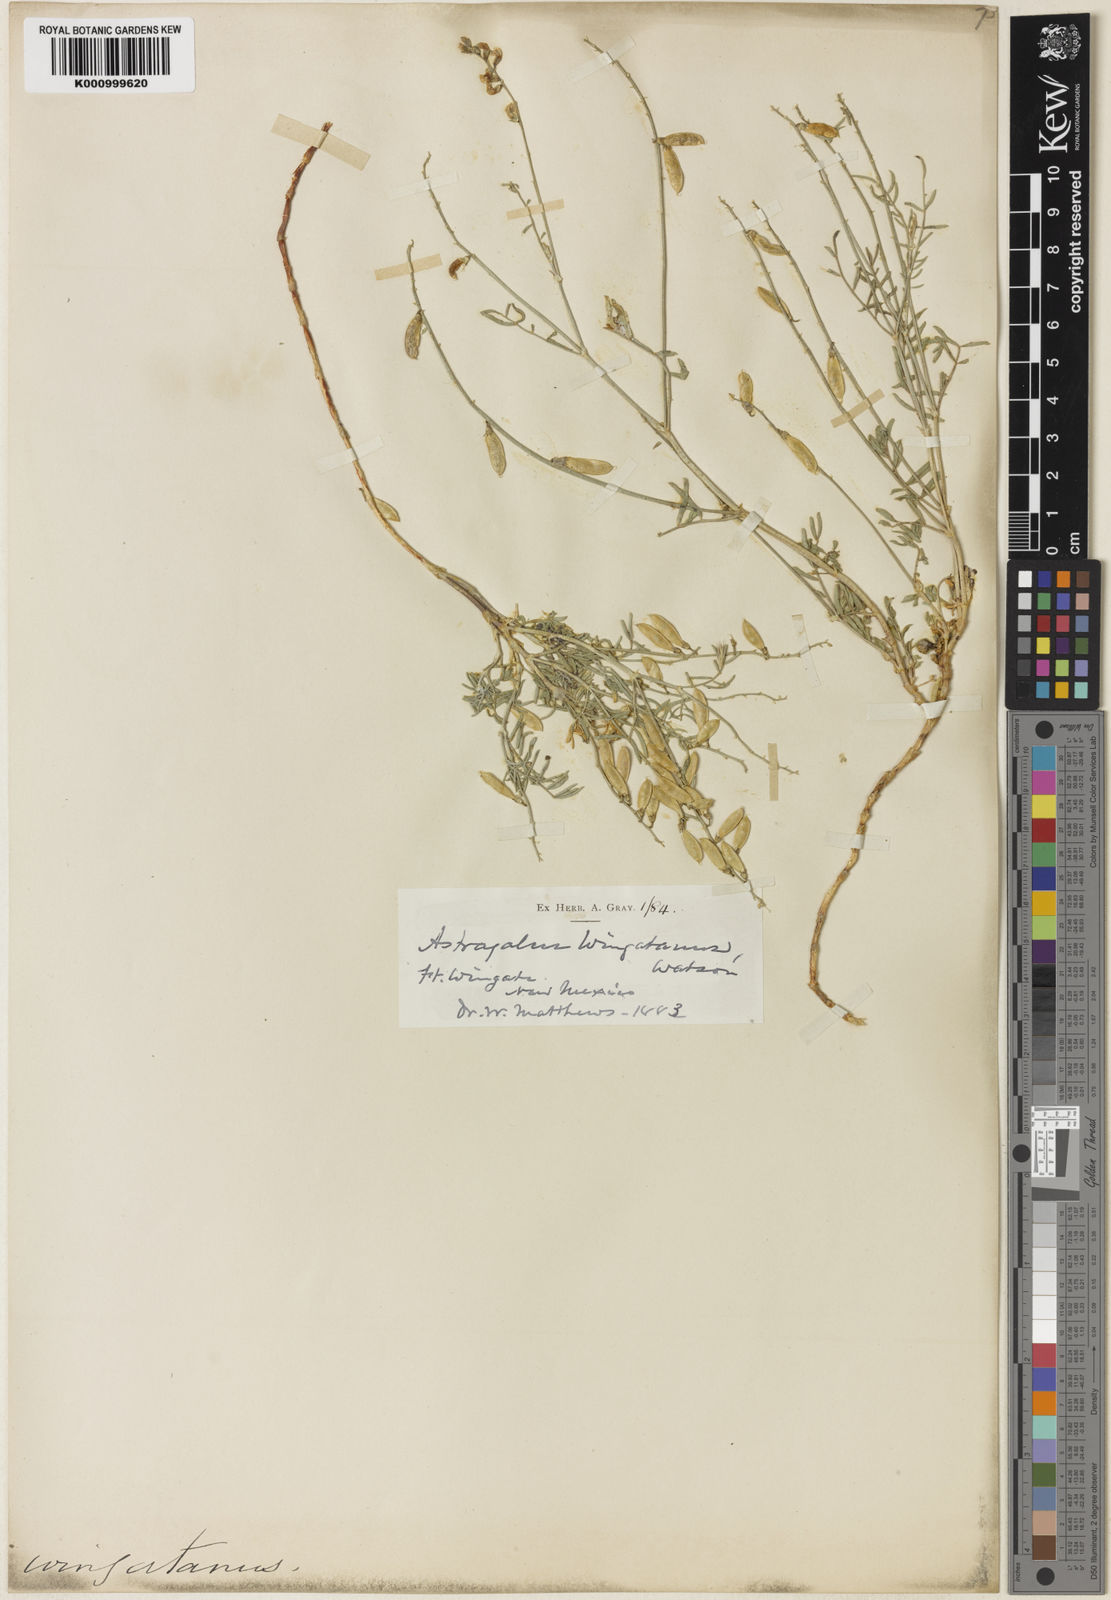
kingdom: Plantae
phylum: Tracheophyta
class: Magnoliopsida
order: Fabales
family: Fabaceae
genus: Astragalus
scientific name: Astragalus
